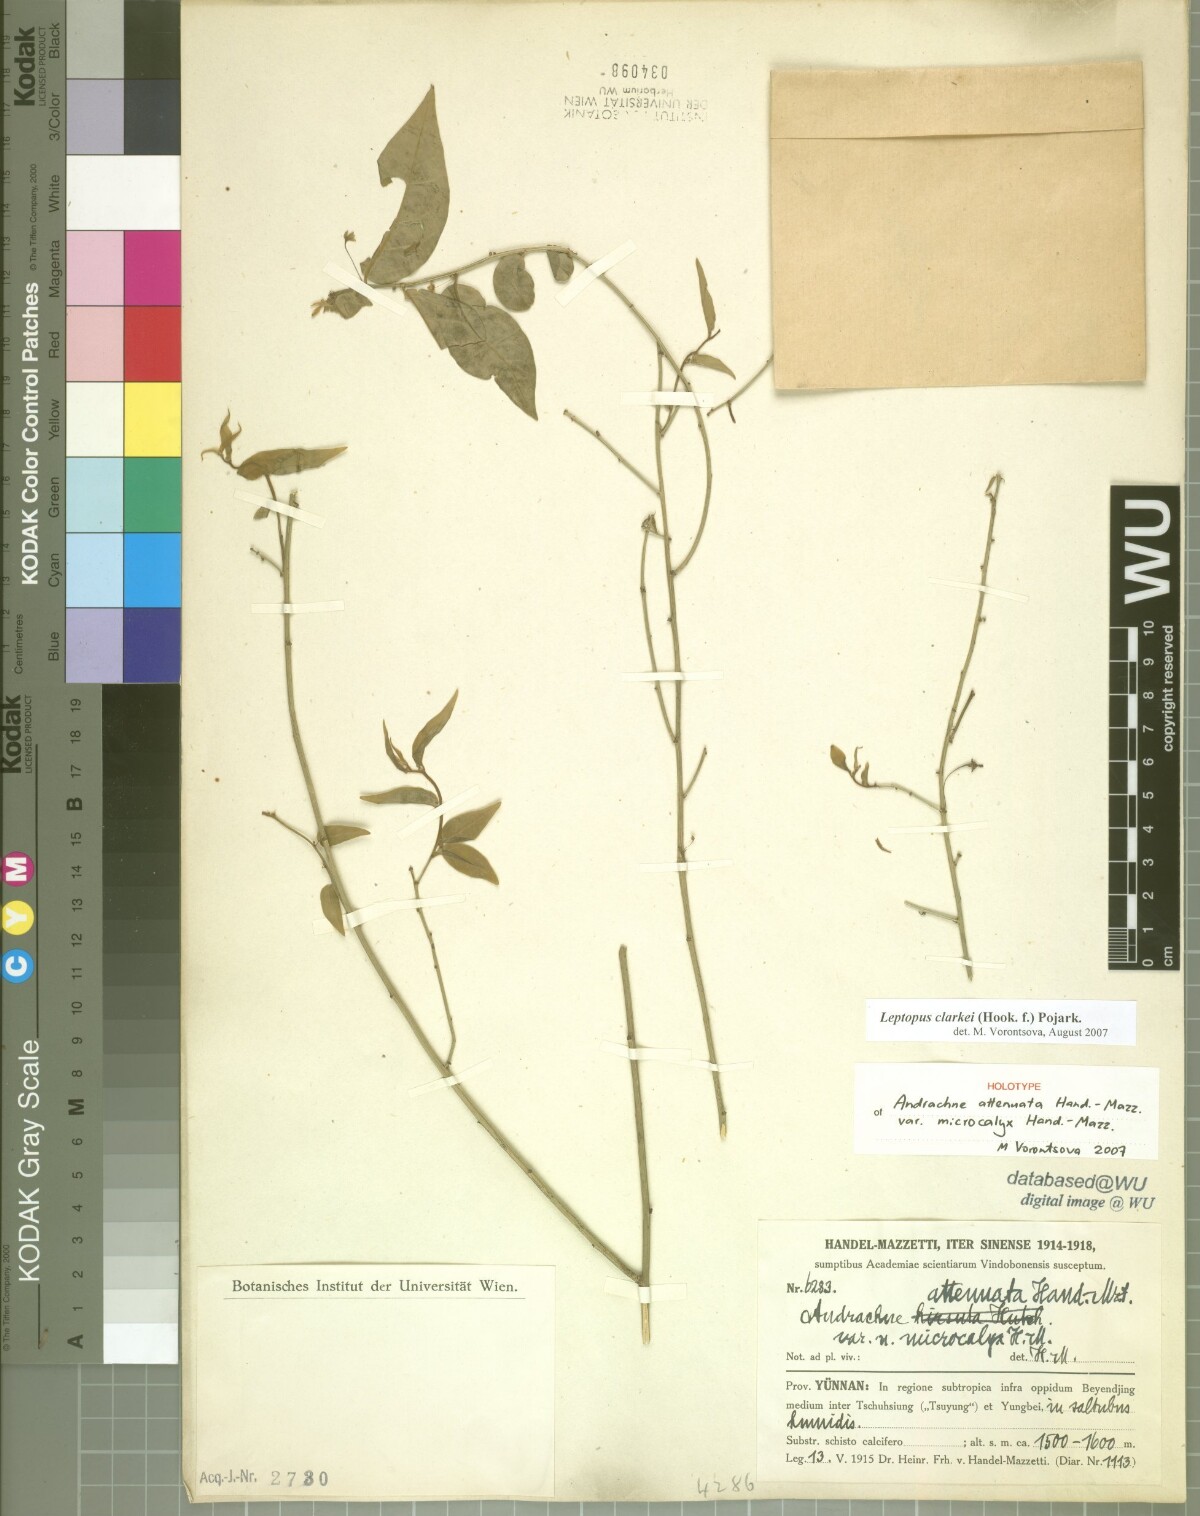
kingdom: Plantae
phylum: Tracheophyta
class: Magnoliopsida
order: Malpighiales
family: Phyllanthaceae
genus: Leptopus
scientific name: Leptopus clarkei
